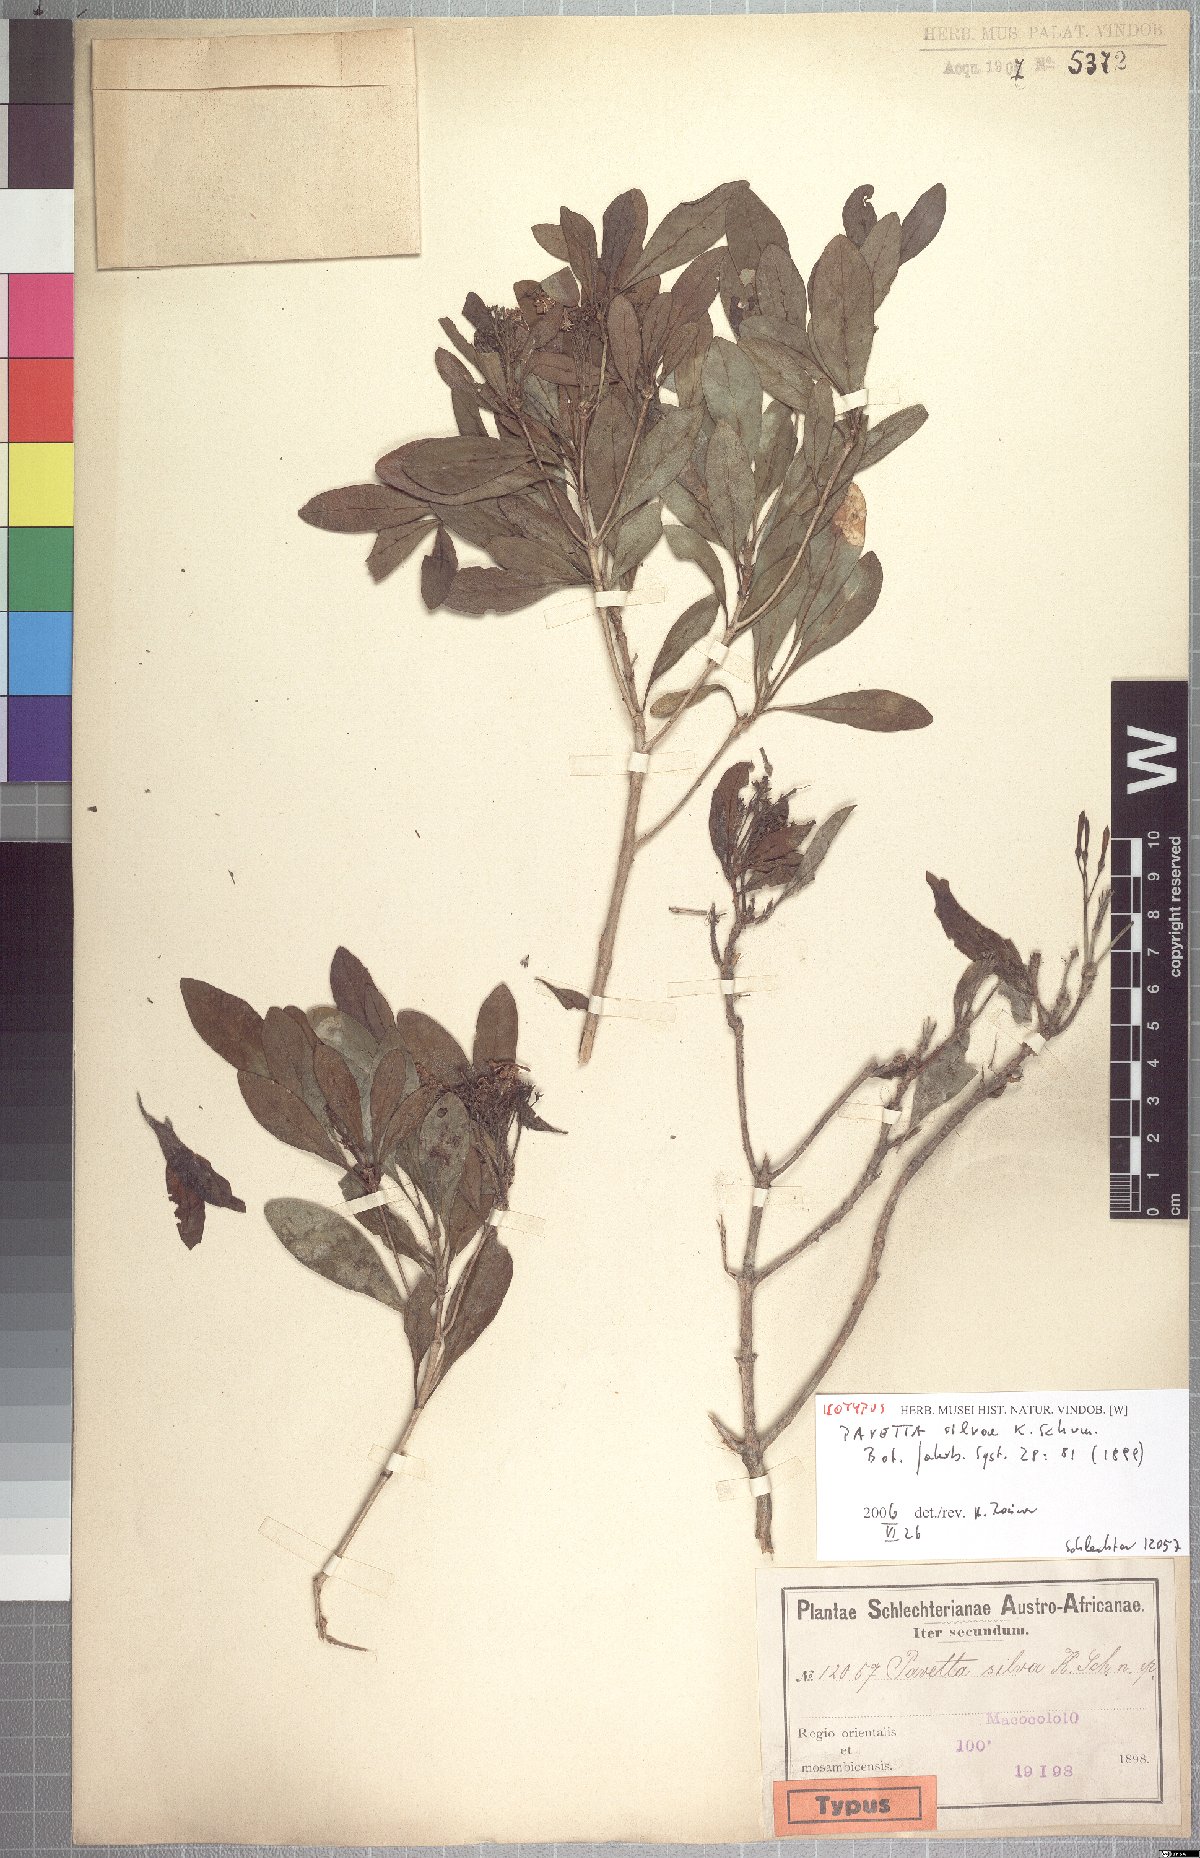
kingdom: Plantae
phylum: Tracheophyta
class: Magnoliopsida
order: Gentianales
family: Rubiaceae
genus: Pavetta
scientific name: Pavetta revoluta
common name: Dune brides-bush
